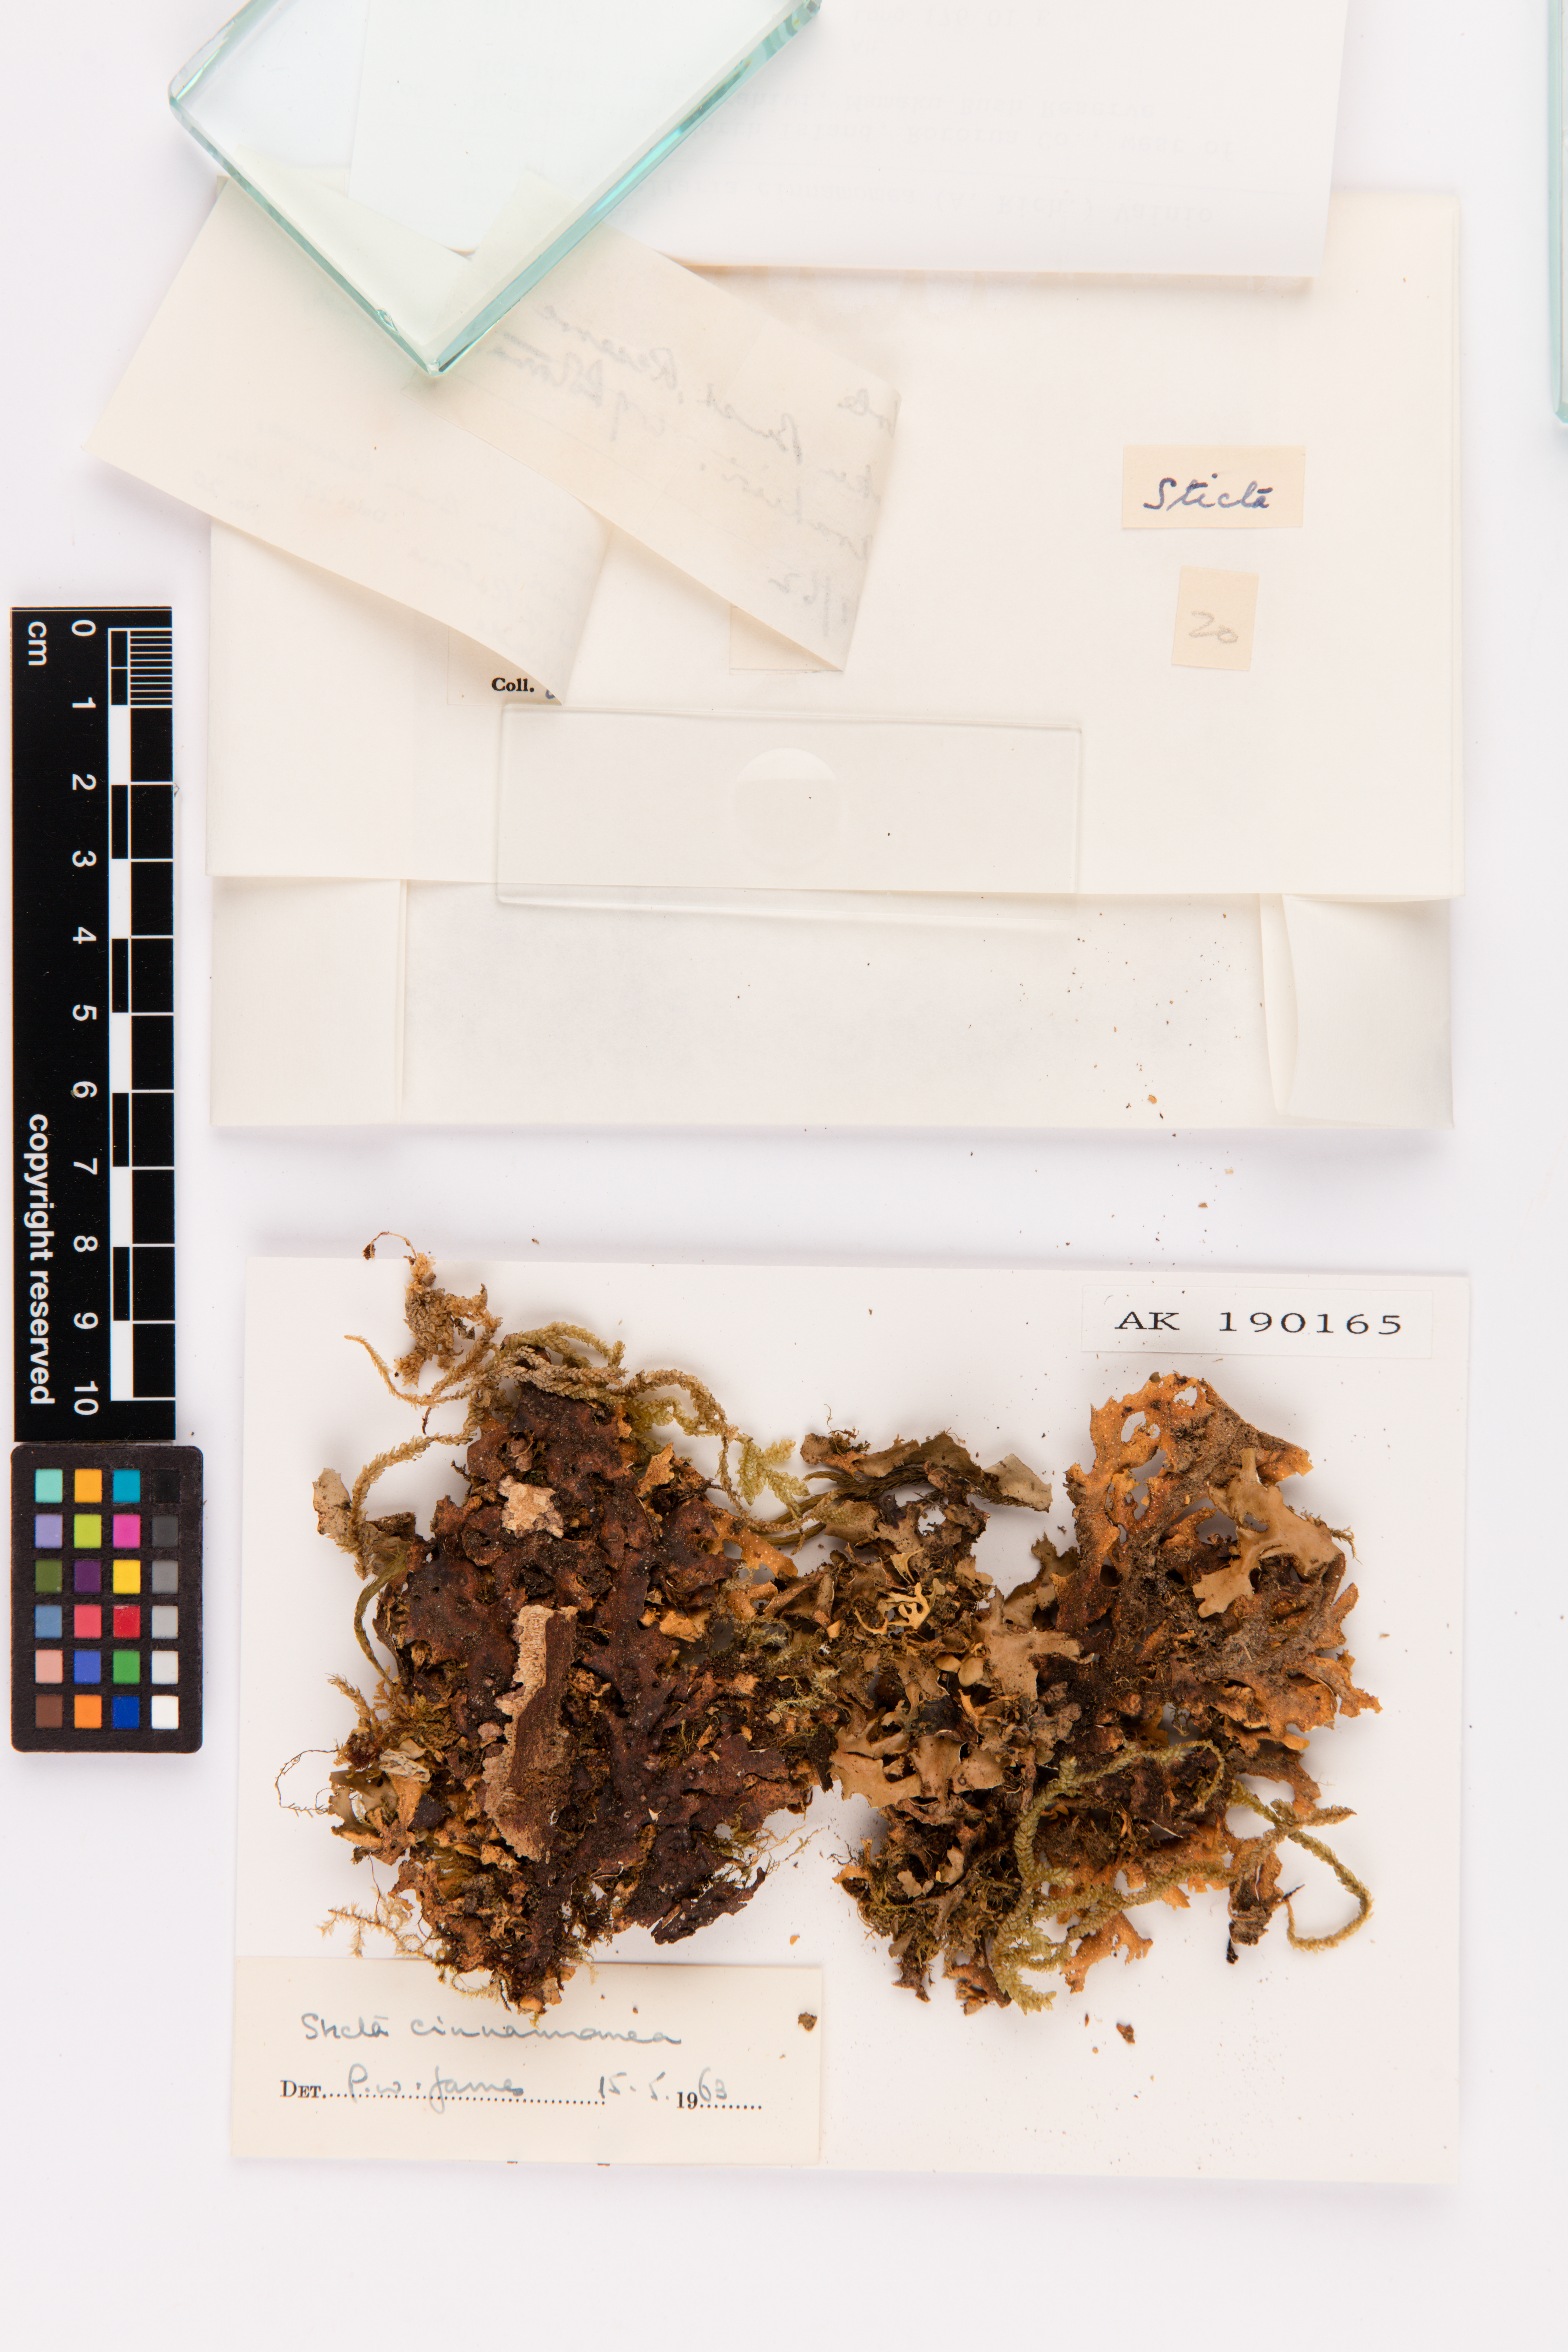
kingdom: Fungi
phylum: Ascomycota
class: Lecanoromycetes
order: Peltigerales
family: Lobariaceae
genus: Pseudocyphellaria
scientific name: Pseudocyphellaria cinnamomea
